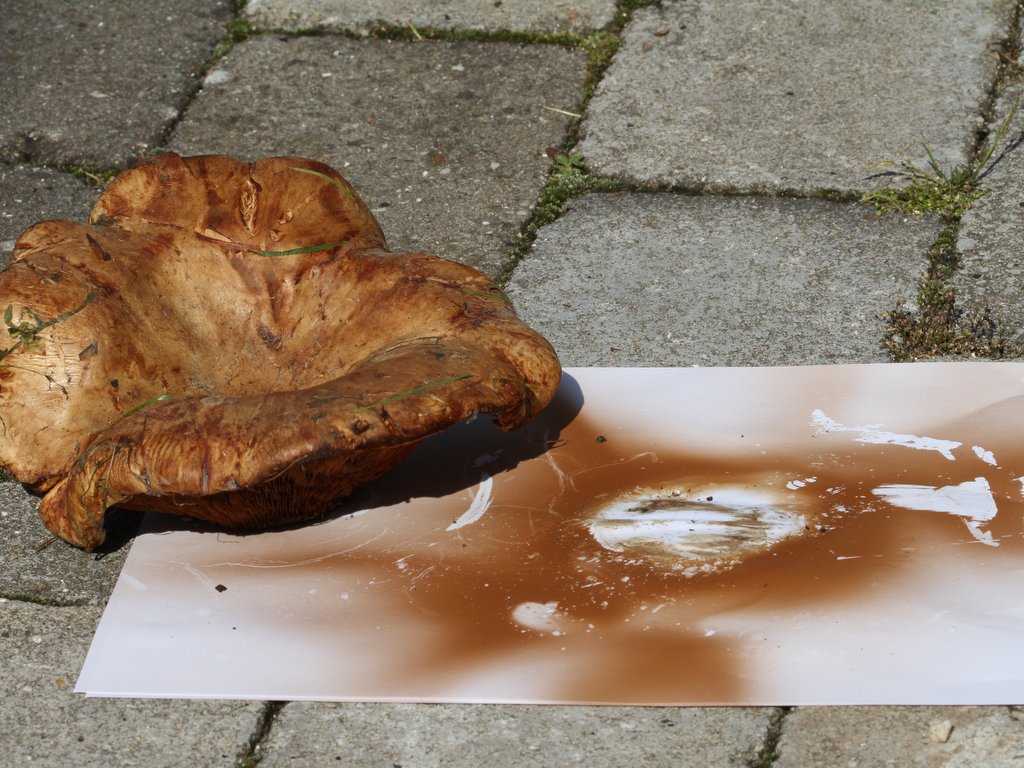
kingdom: Fungi
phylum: Basidiomycota
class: Agaricomycetes
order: Boletales
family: Paxillaceae
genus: Paxillus
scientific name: Paxillus obscurisporus
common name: mahognisporet netbladhat
